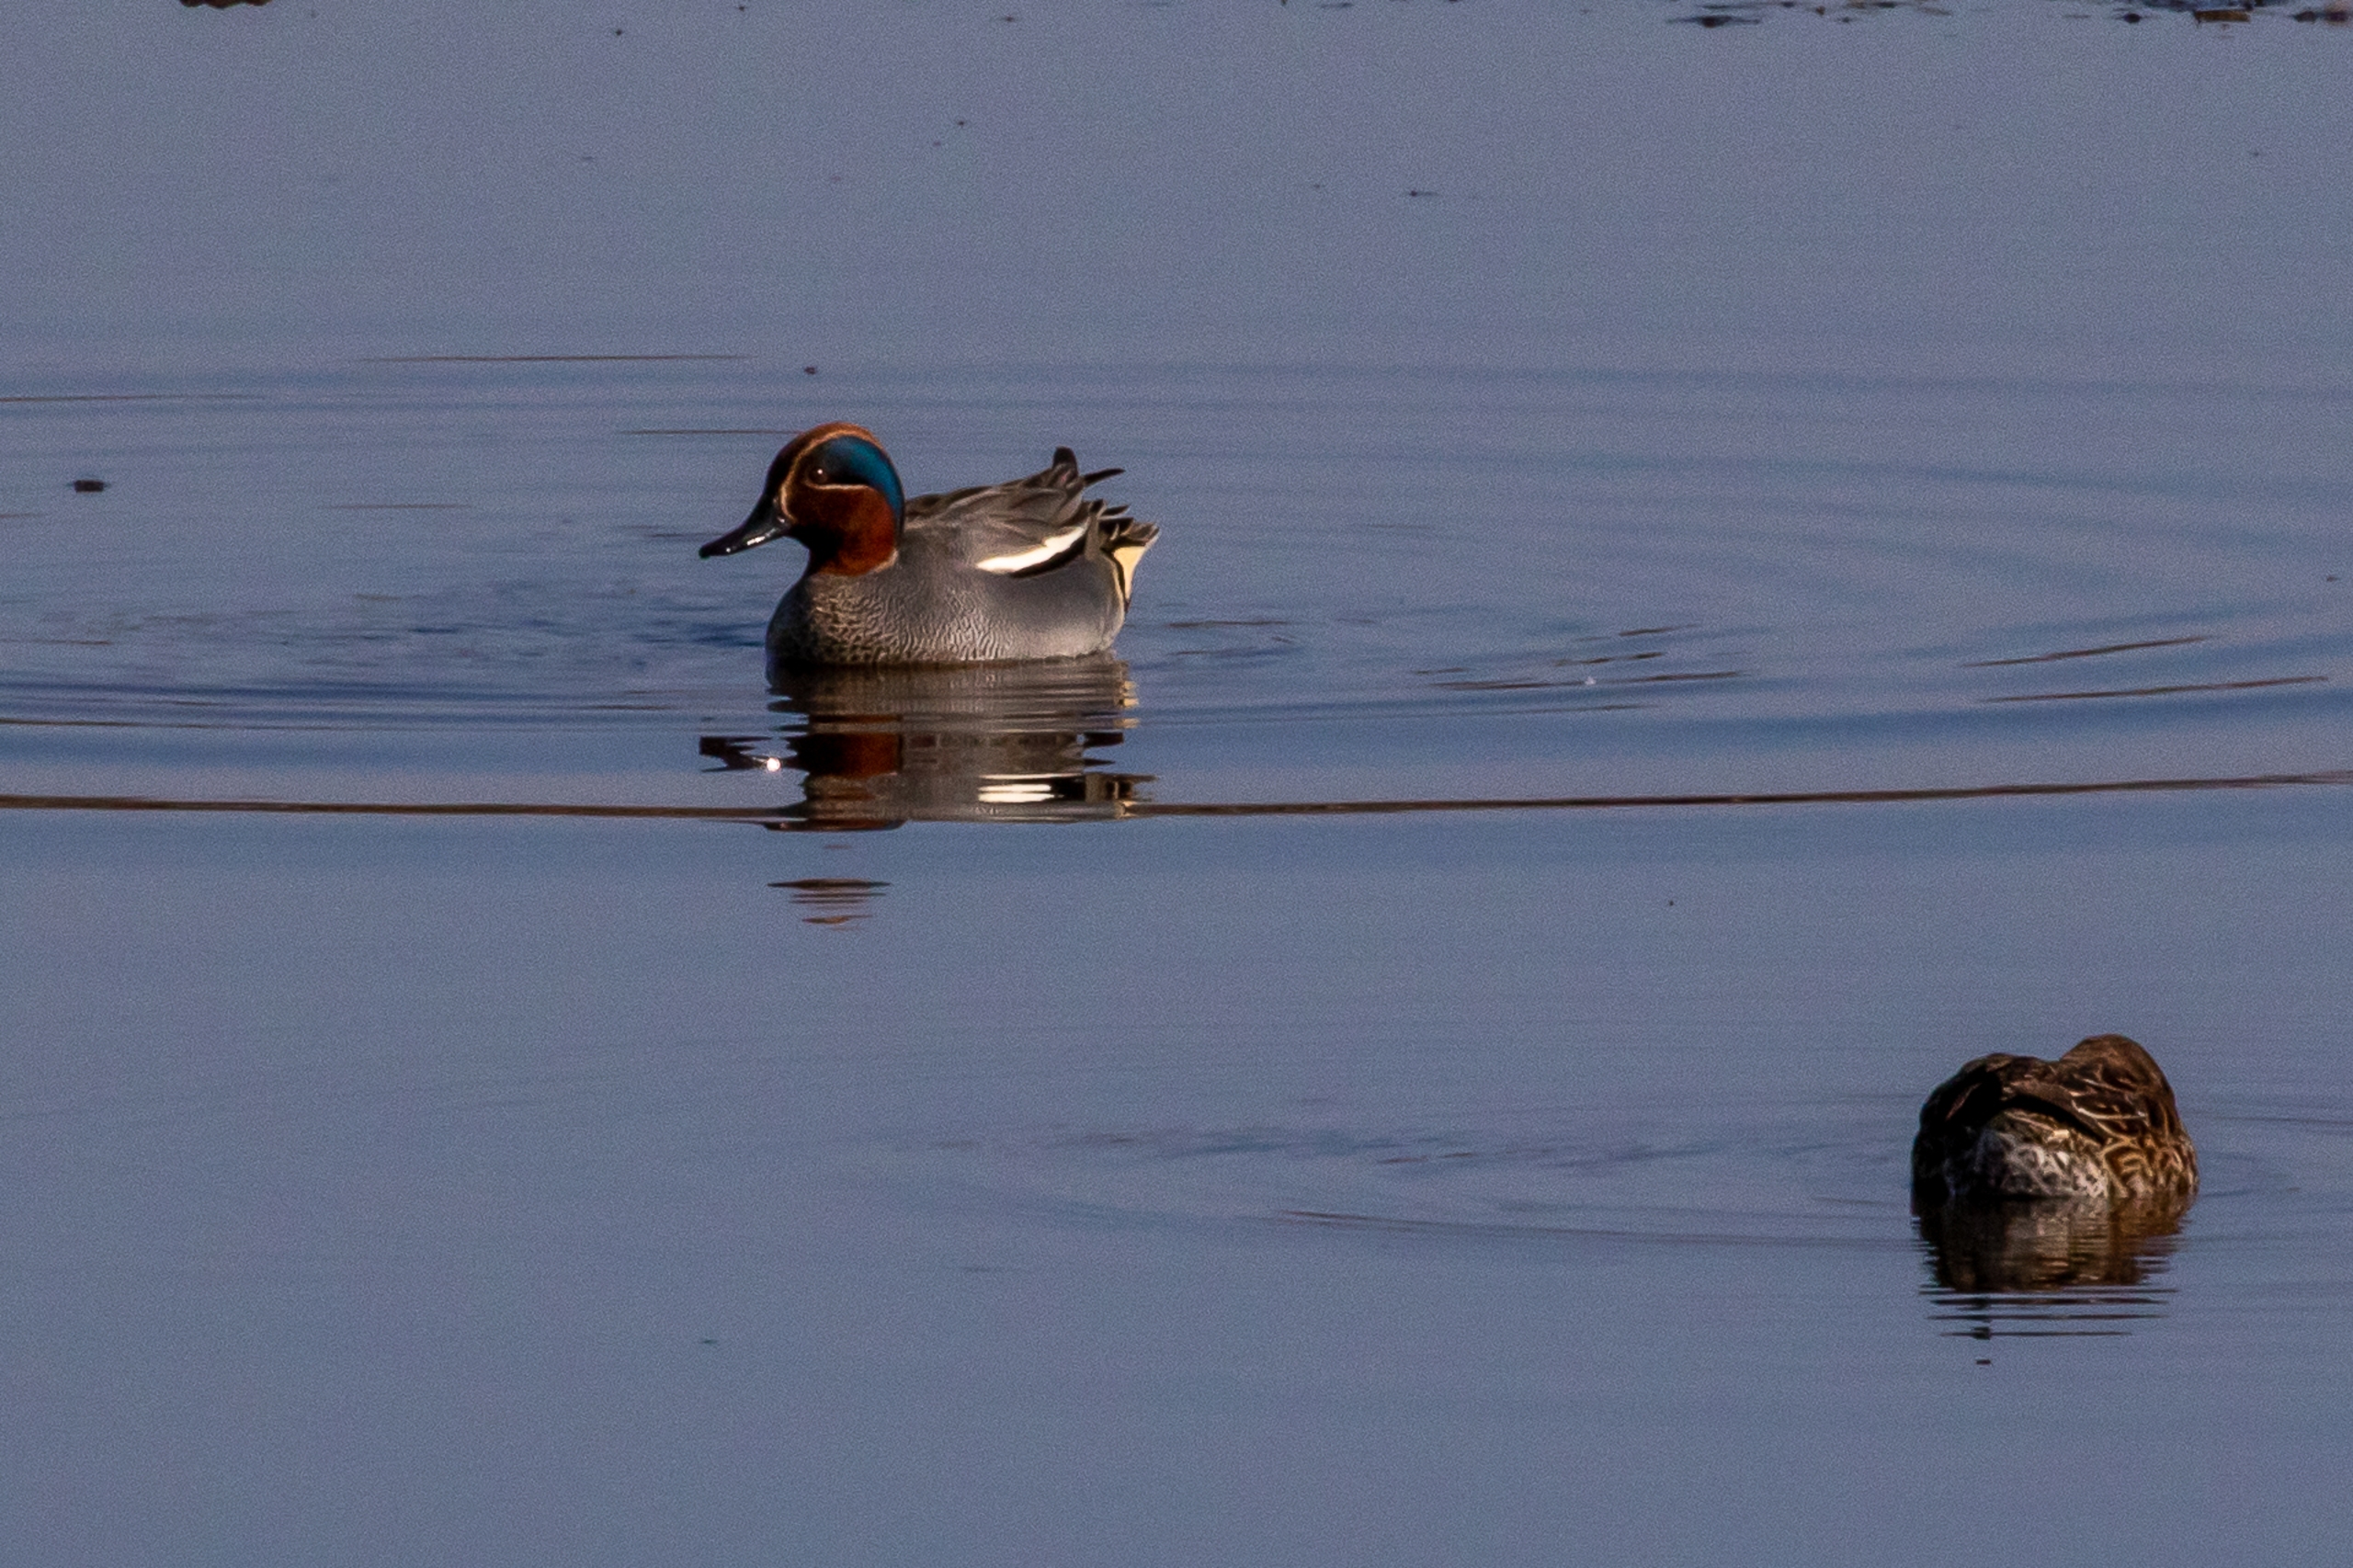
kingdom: Animalia
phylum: Chordata
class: Aves
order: Anseriformes
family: Anatidae
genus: Anas
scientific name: Anas crecca
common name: Krikand
